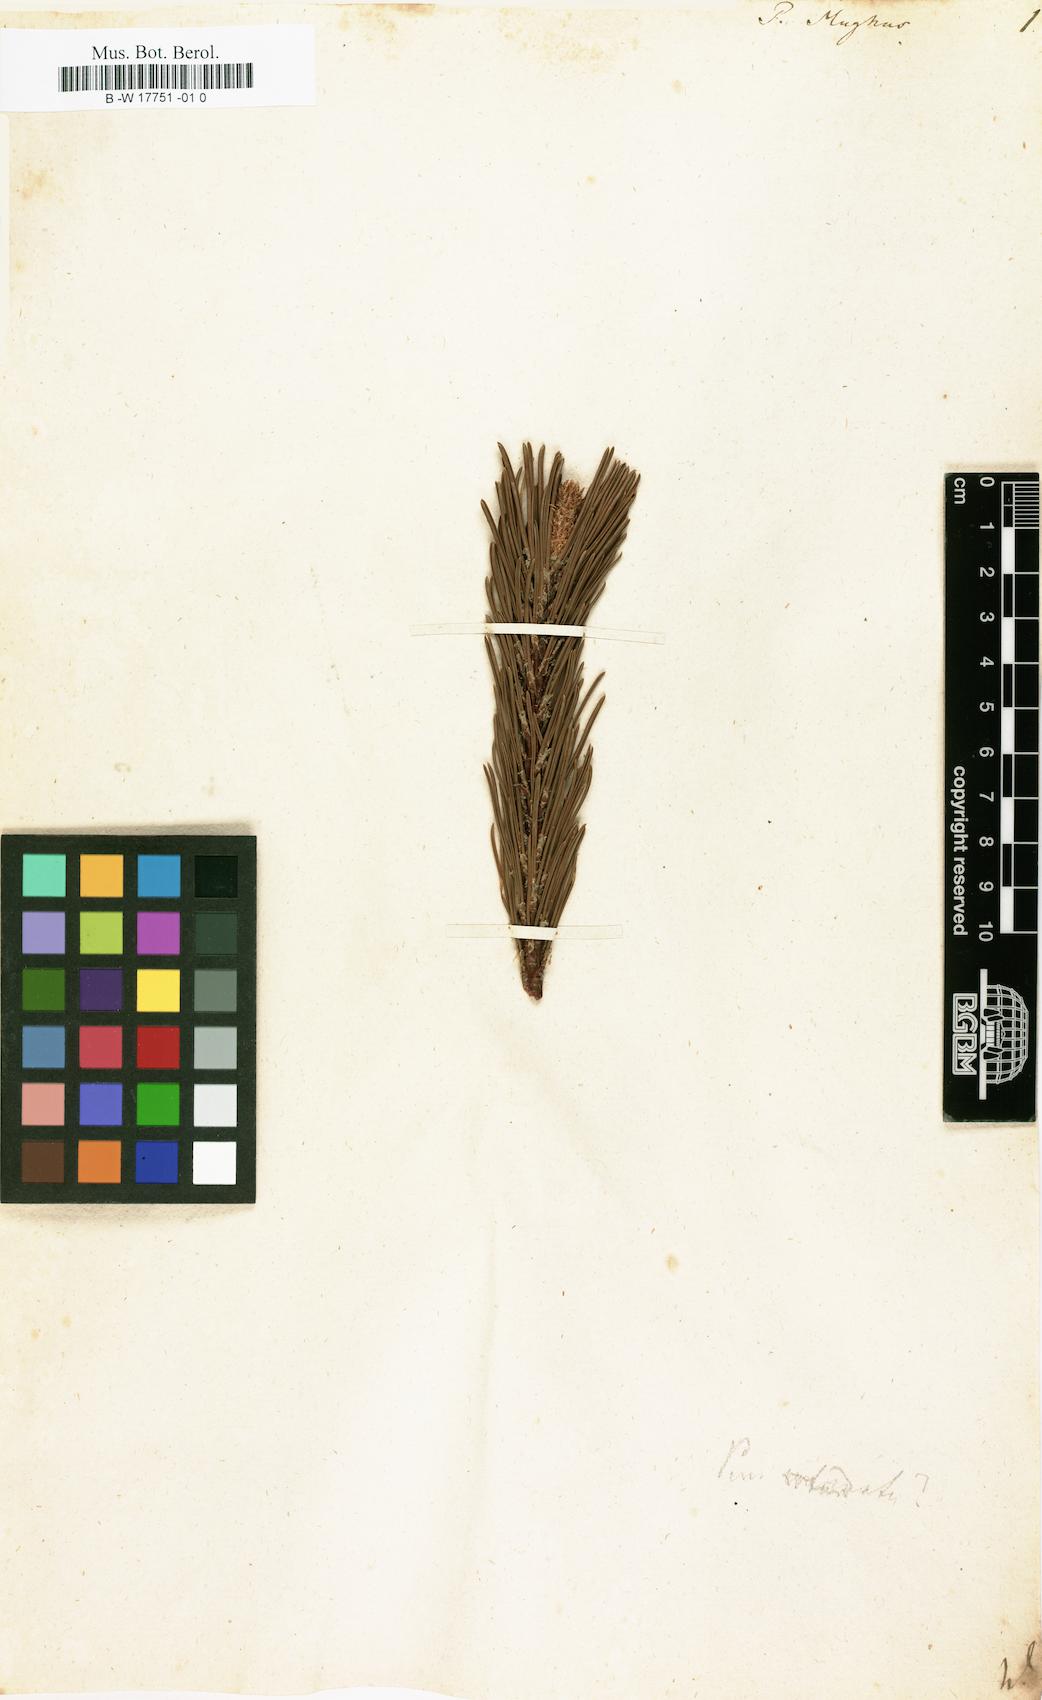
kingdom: Plantae
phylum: Tracheophyta
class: Pinopsida
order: Pinales
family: Pinaceae
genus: Pinus
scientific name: Pinus
